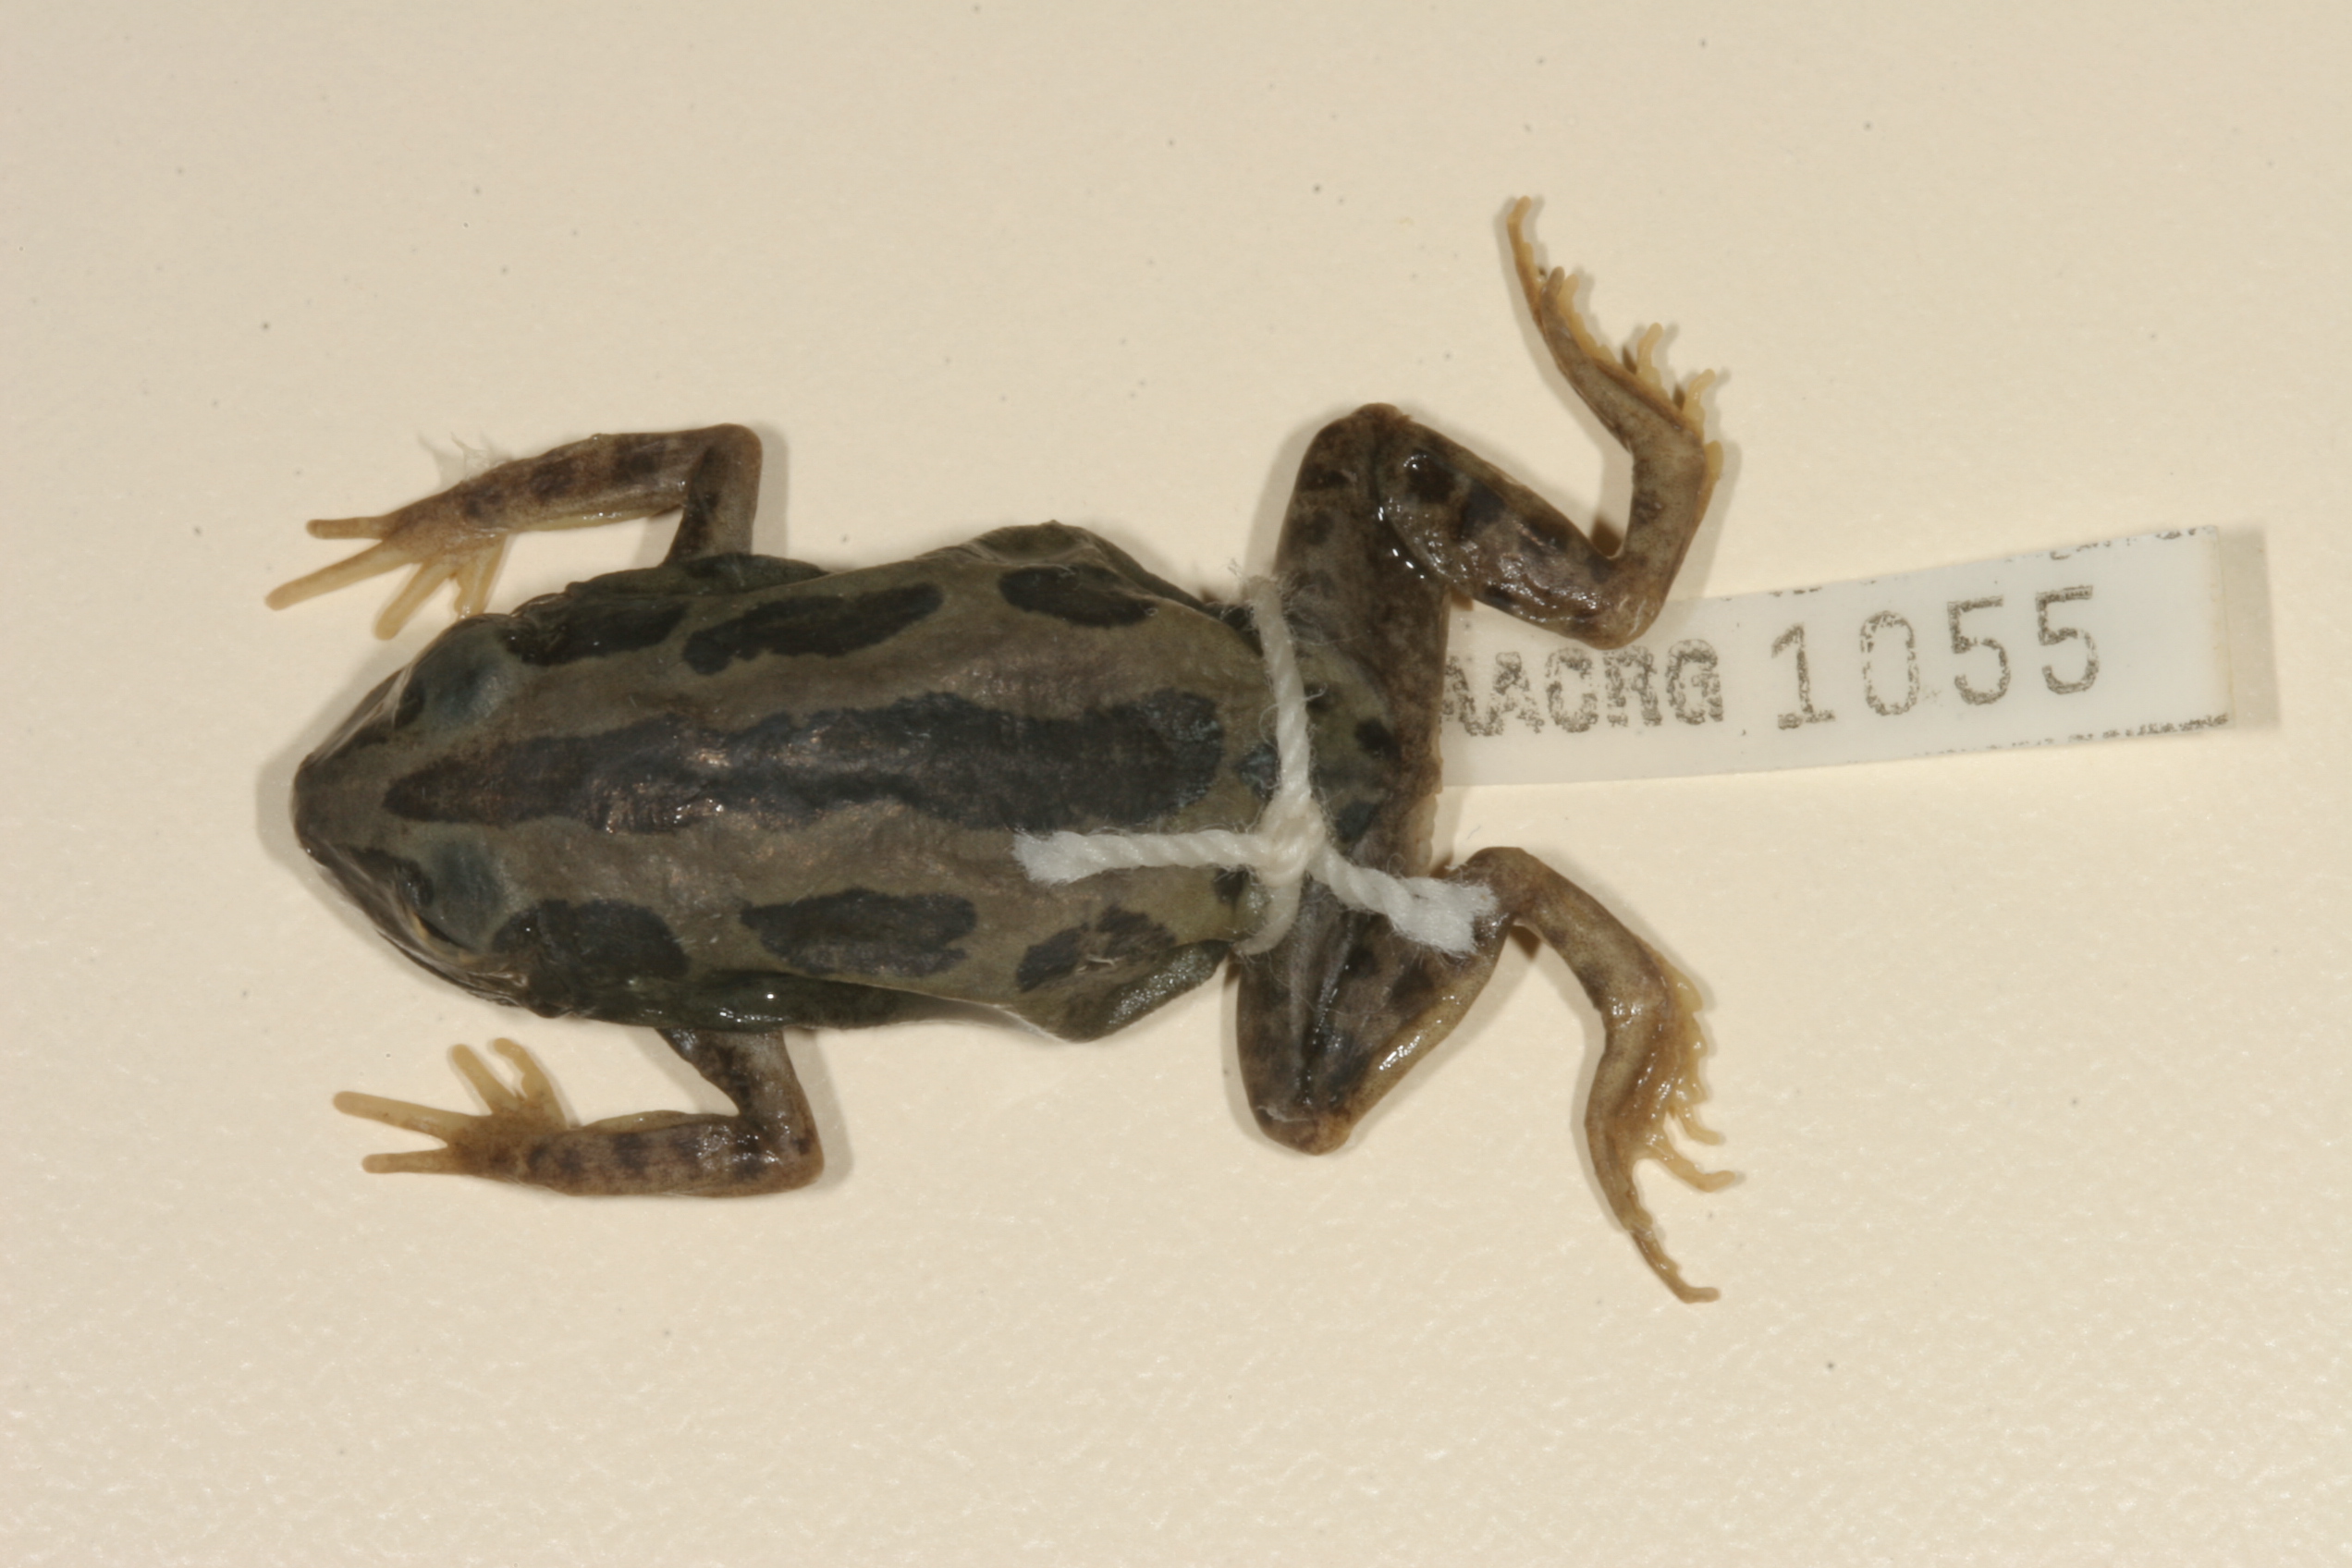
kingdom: Animalia
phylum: Chordata
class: Amphibia
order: Anura
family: Hyperoliidae
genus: Kassina
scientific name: Kassina senegalensis
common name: Senegal land frog
